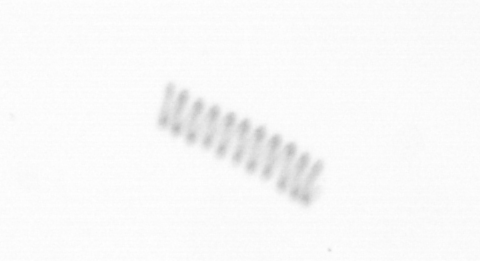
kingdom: Chromista
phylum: Ochrophyta
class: Bacillariophyceae
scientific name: Bacillariophyceae
